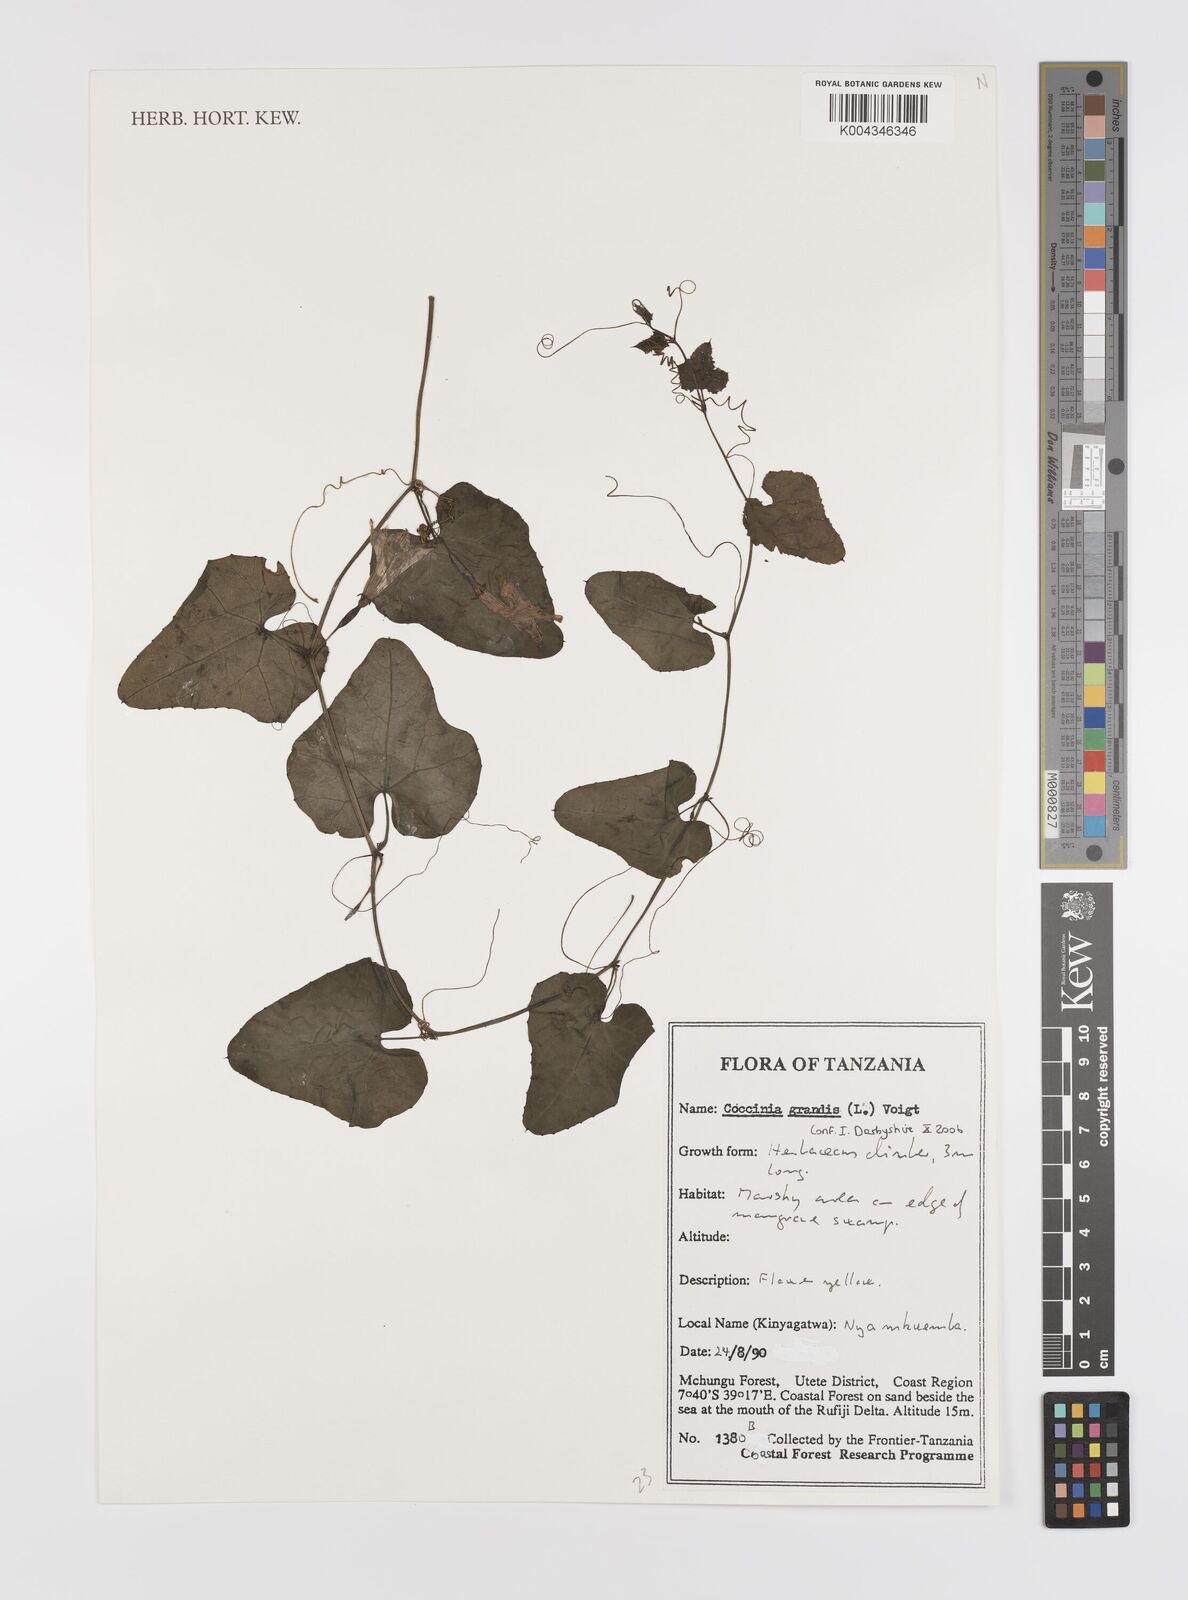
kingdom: Plantae
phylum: Tracheophyta
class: Magnoliopsida
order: Cucurbitales
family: Cucurbitaceae
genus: Coccinia
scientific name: Coccinia grandis
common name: Ivy gourd
